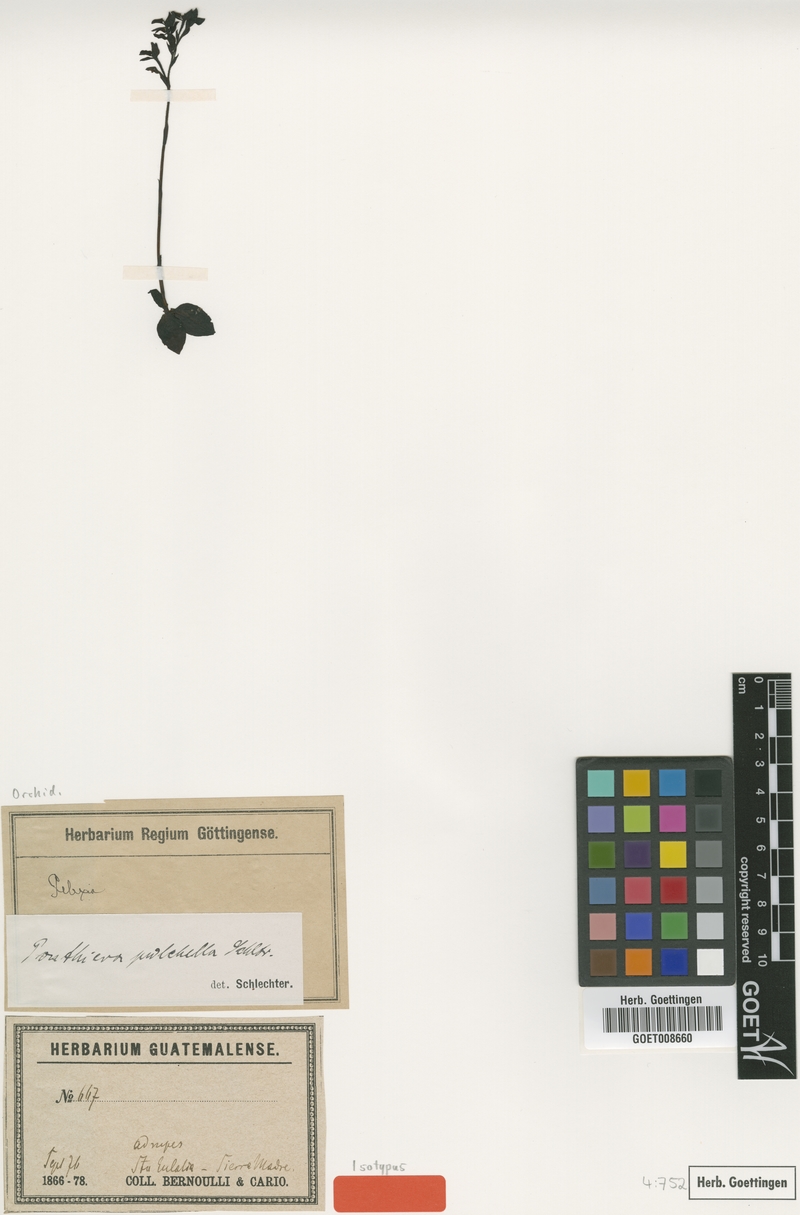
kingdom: Plantae
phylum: Tracheophyta
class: Liliopsida
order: Asparagales
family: Orchidaceae
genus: Ponthieva
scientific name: Ponthieva pulchella
